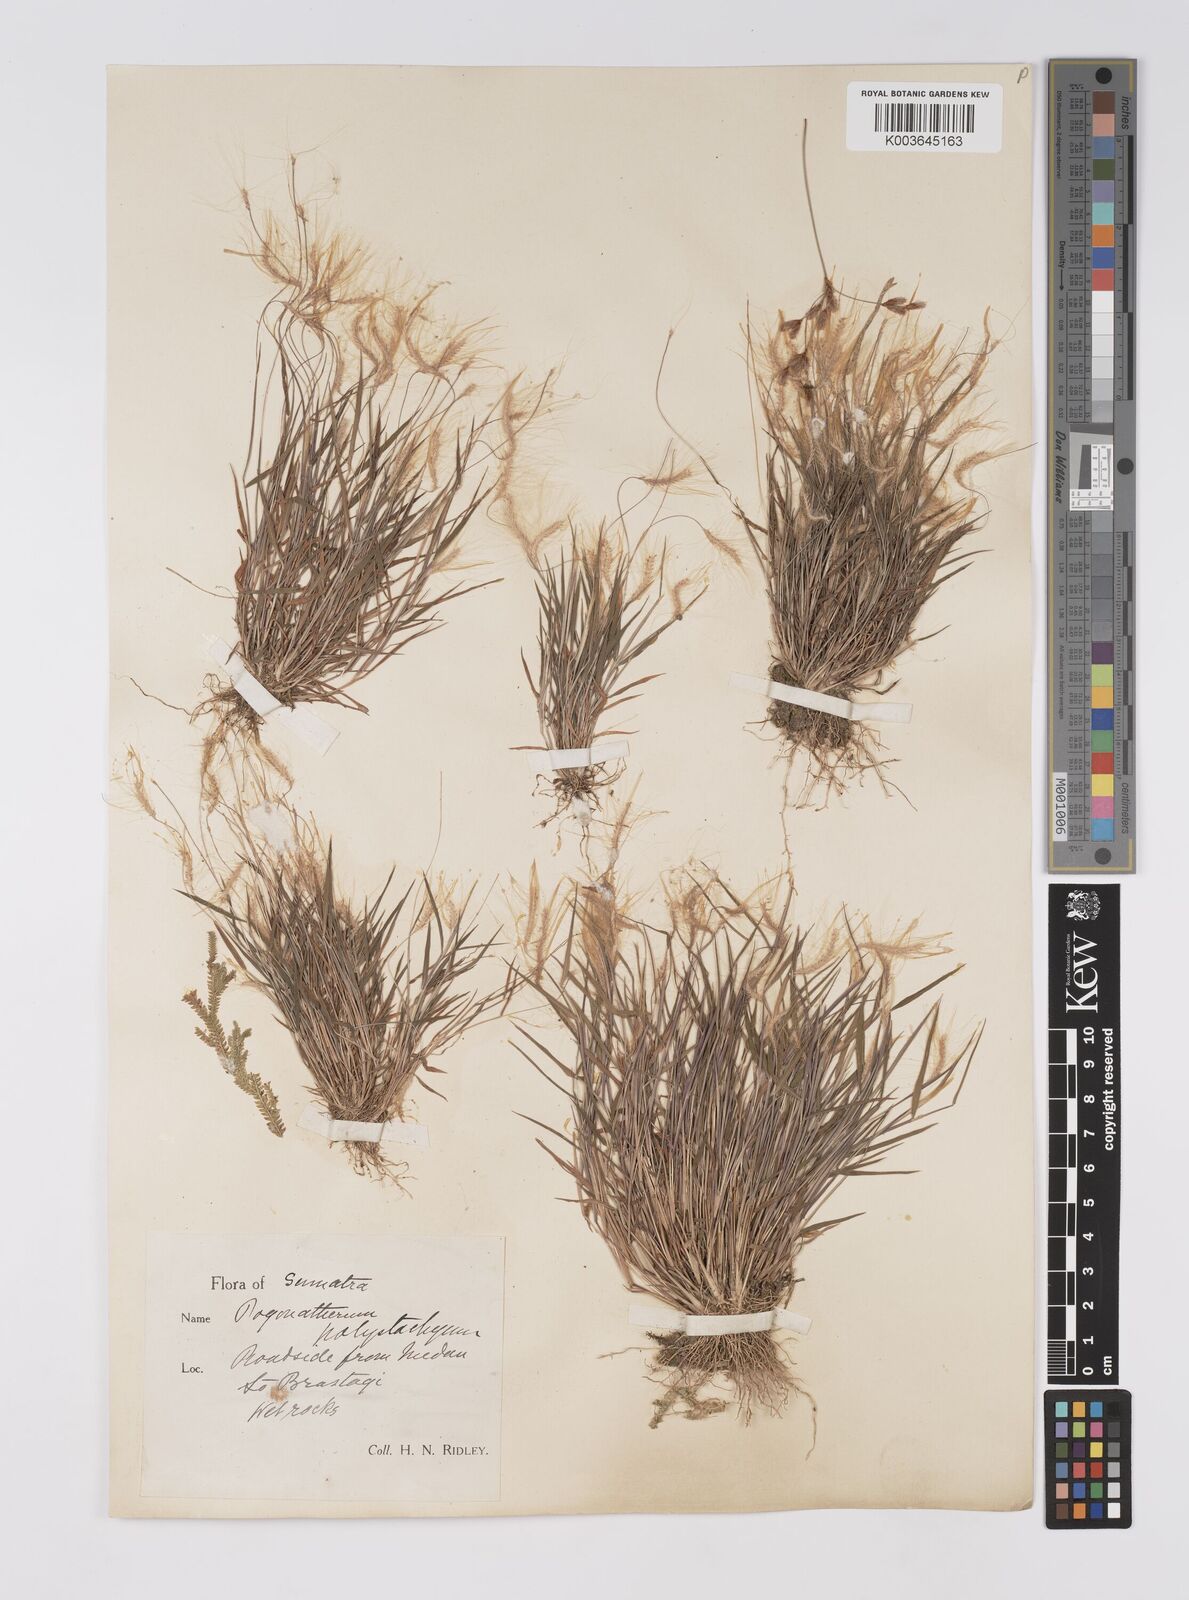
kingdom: Plantae
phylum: Tracheophyta
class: Liliopsida
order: Poales
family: Poaceae
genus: Pogonatherum
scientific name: Pogonatherum crinitum
